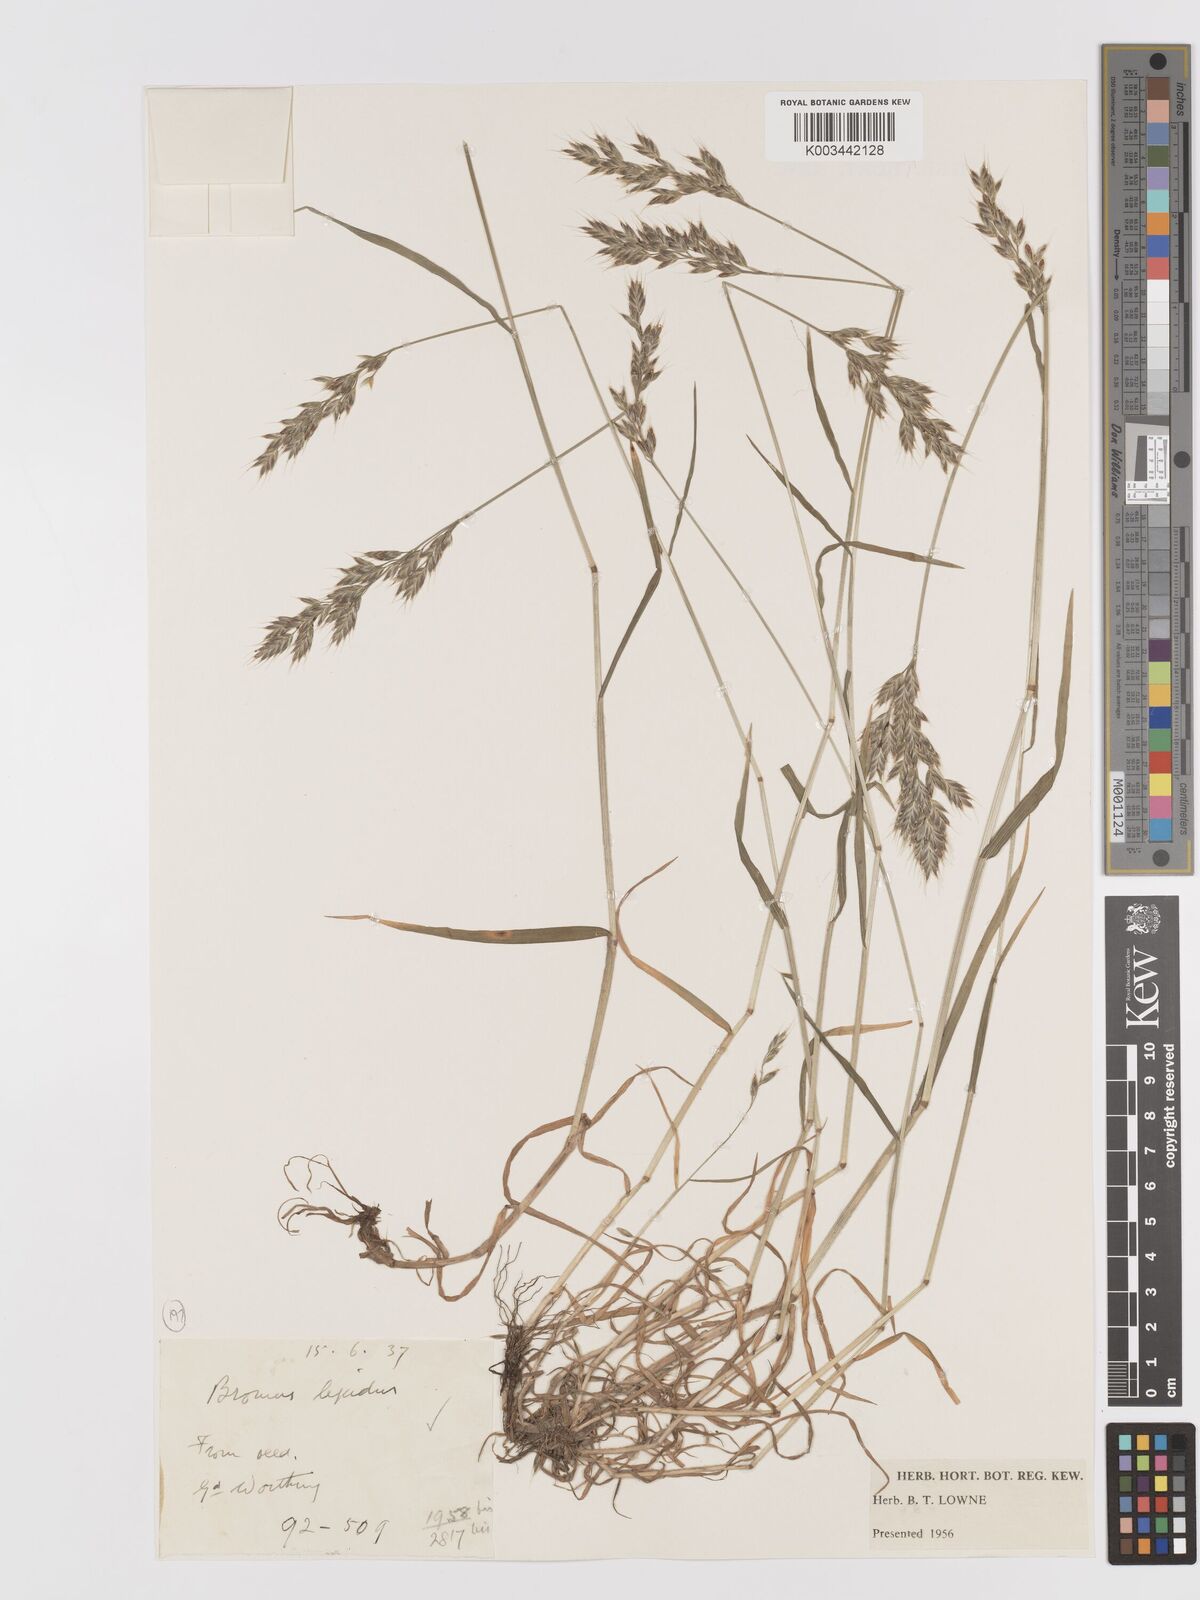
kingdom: Plantae
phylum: Tracheophyta
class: Liliopsida
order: Poales
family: Poaceae
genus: Bromus
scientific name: Bromus lepidus
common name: Slender soft-brome
